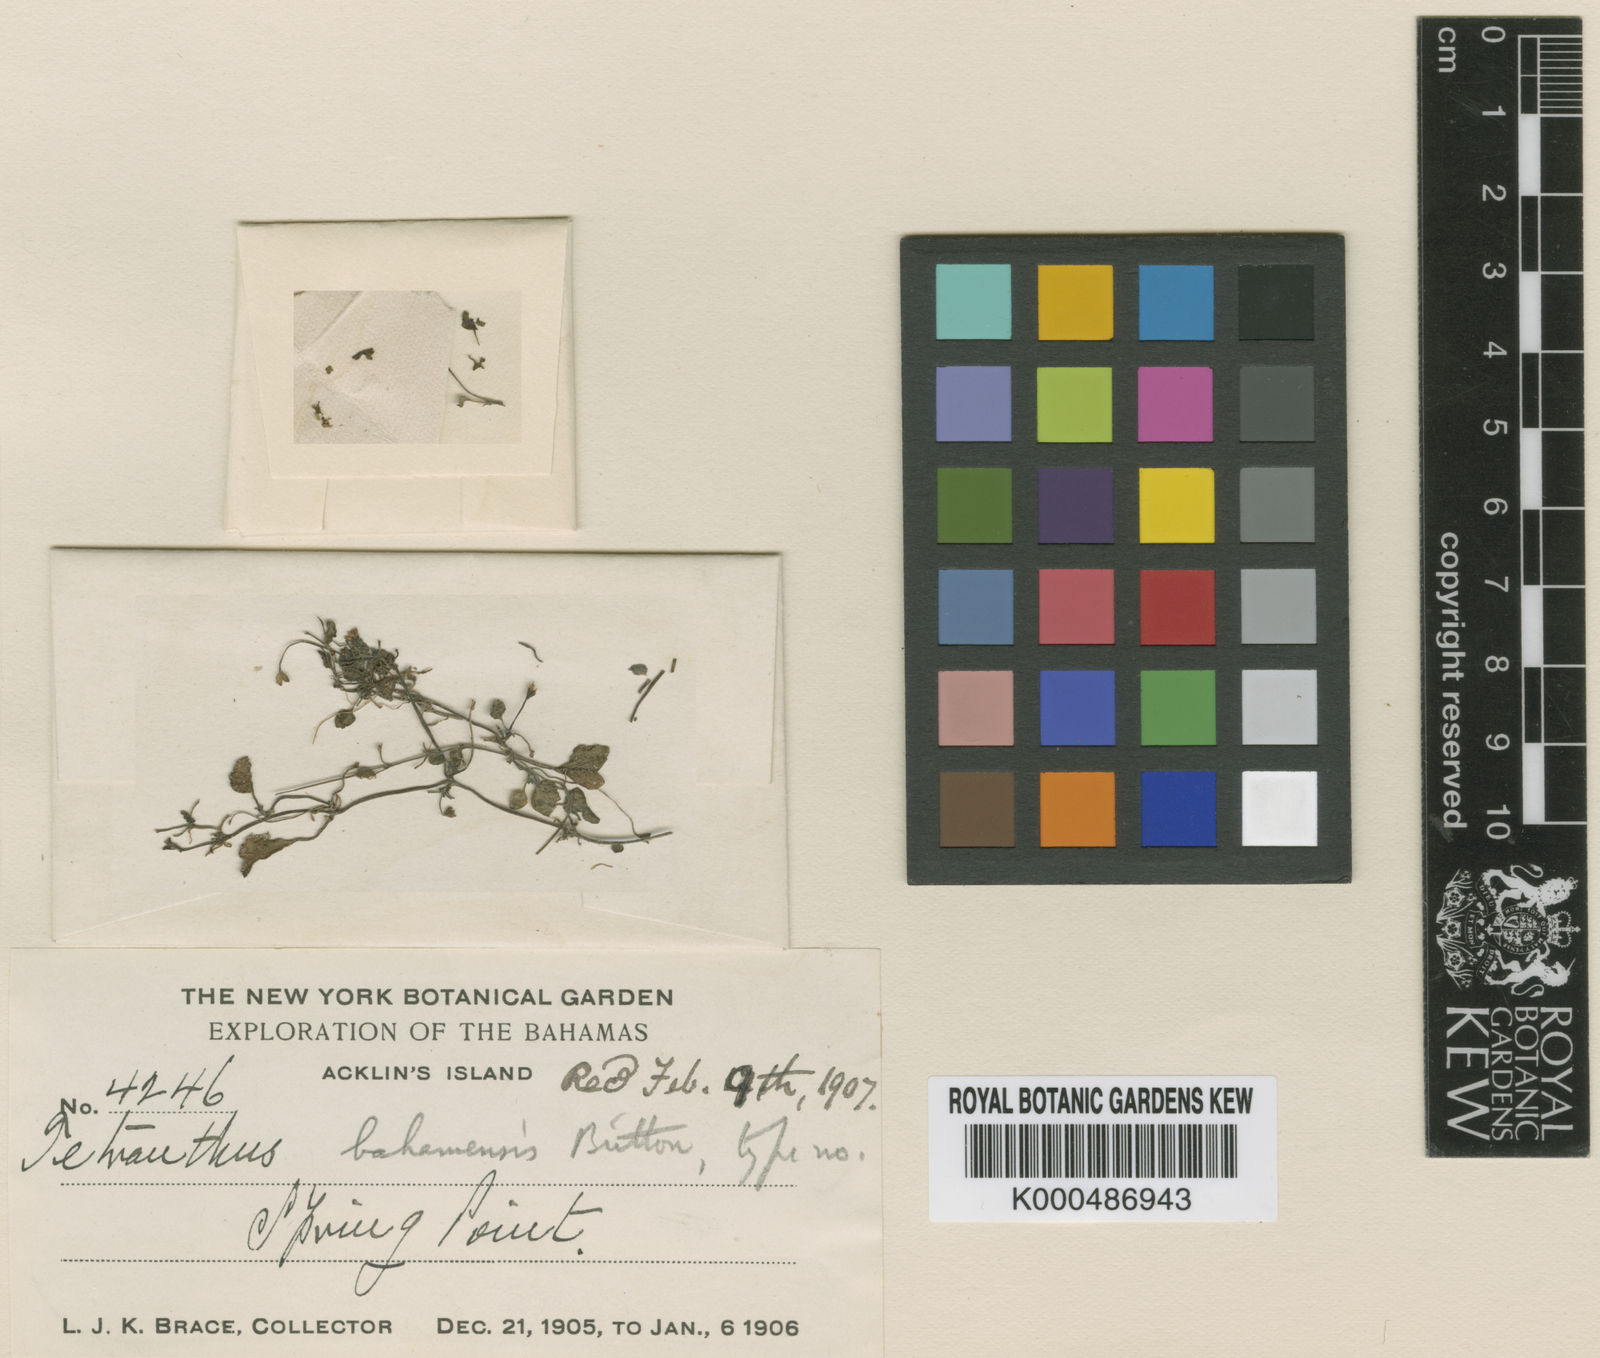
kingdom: Plantae
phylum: Tracheophyta
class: Magnoliopsida
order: Asterales
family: Asteraceae
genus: Tetranthus
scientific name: Tetranthus bahamensis
